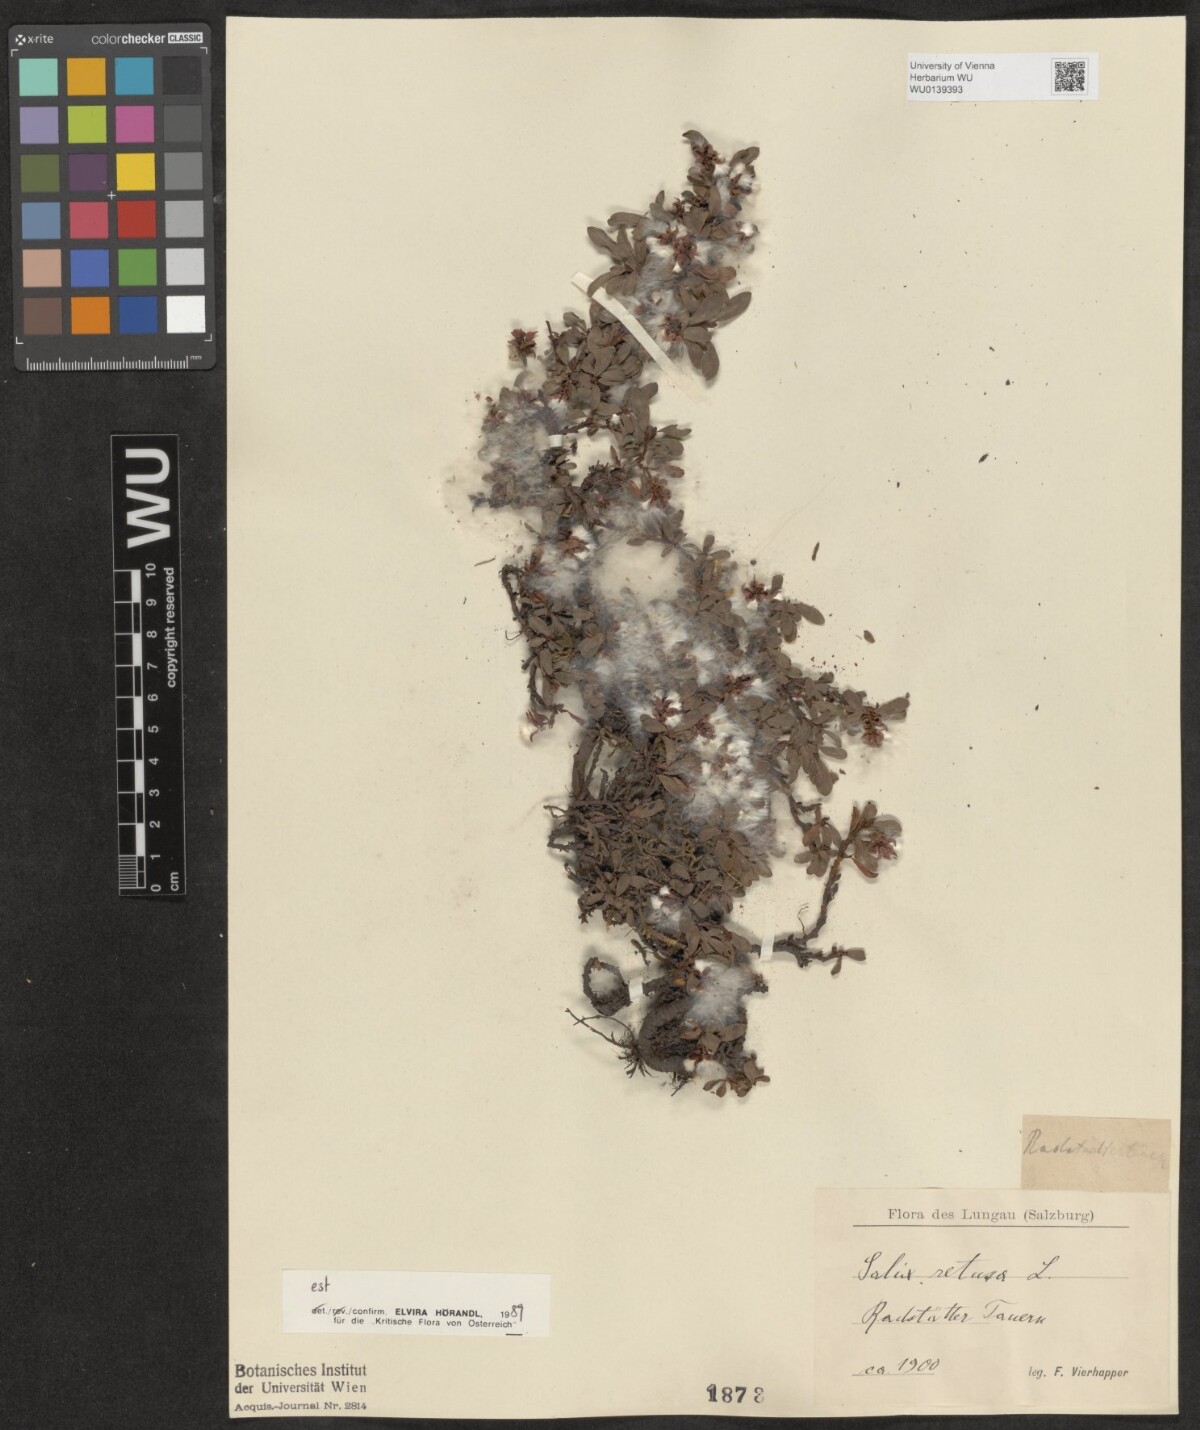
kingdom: Plantae
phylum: Tracheophyta
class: Magnoliopsida
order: Malpighiales
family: Salicaceae
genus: Salix
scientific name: Salix retusa
